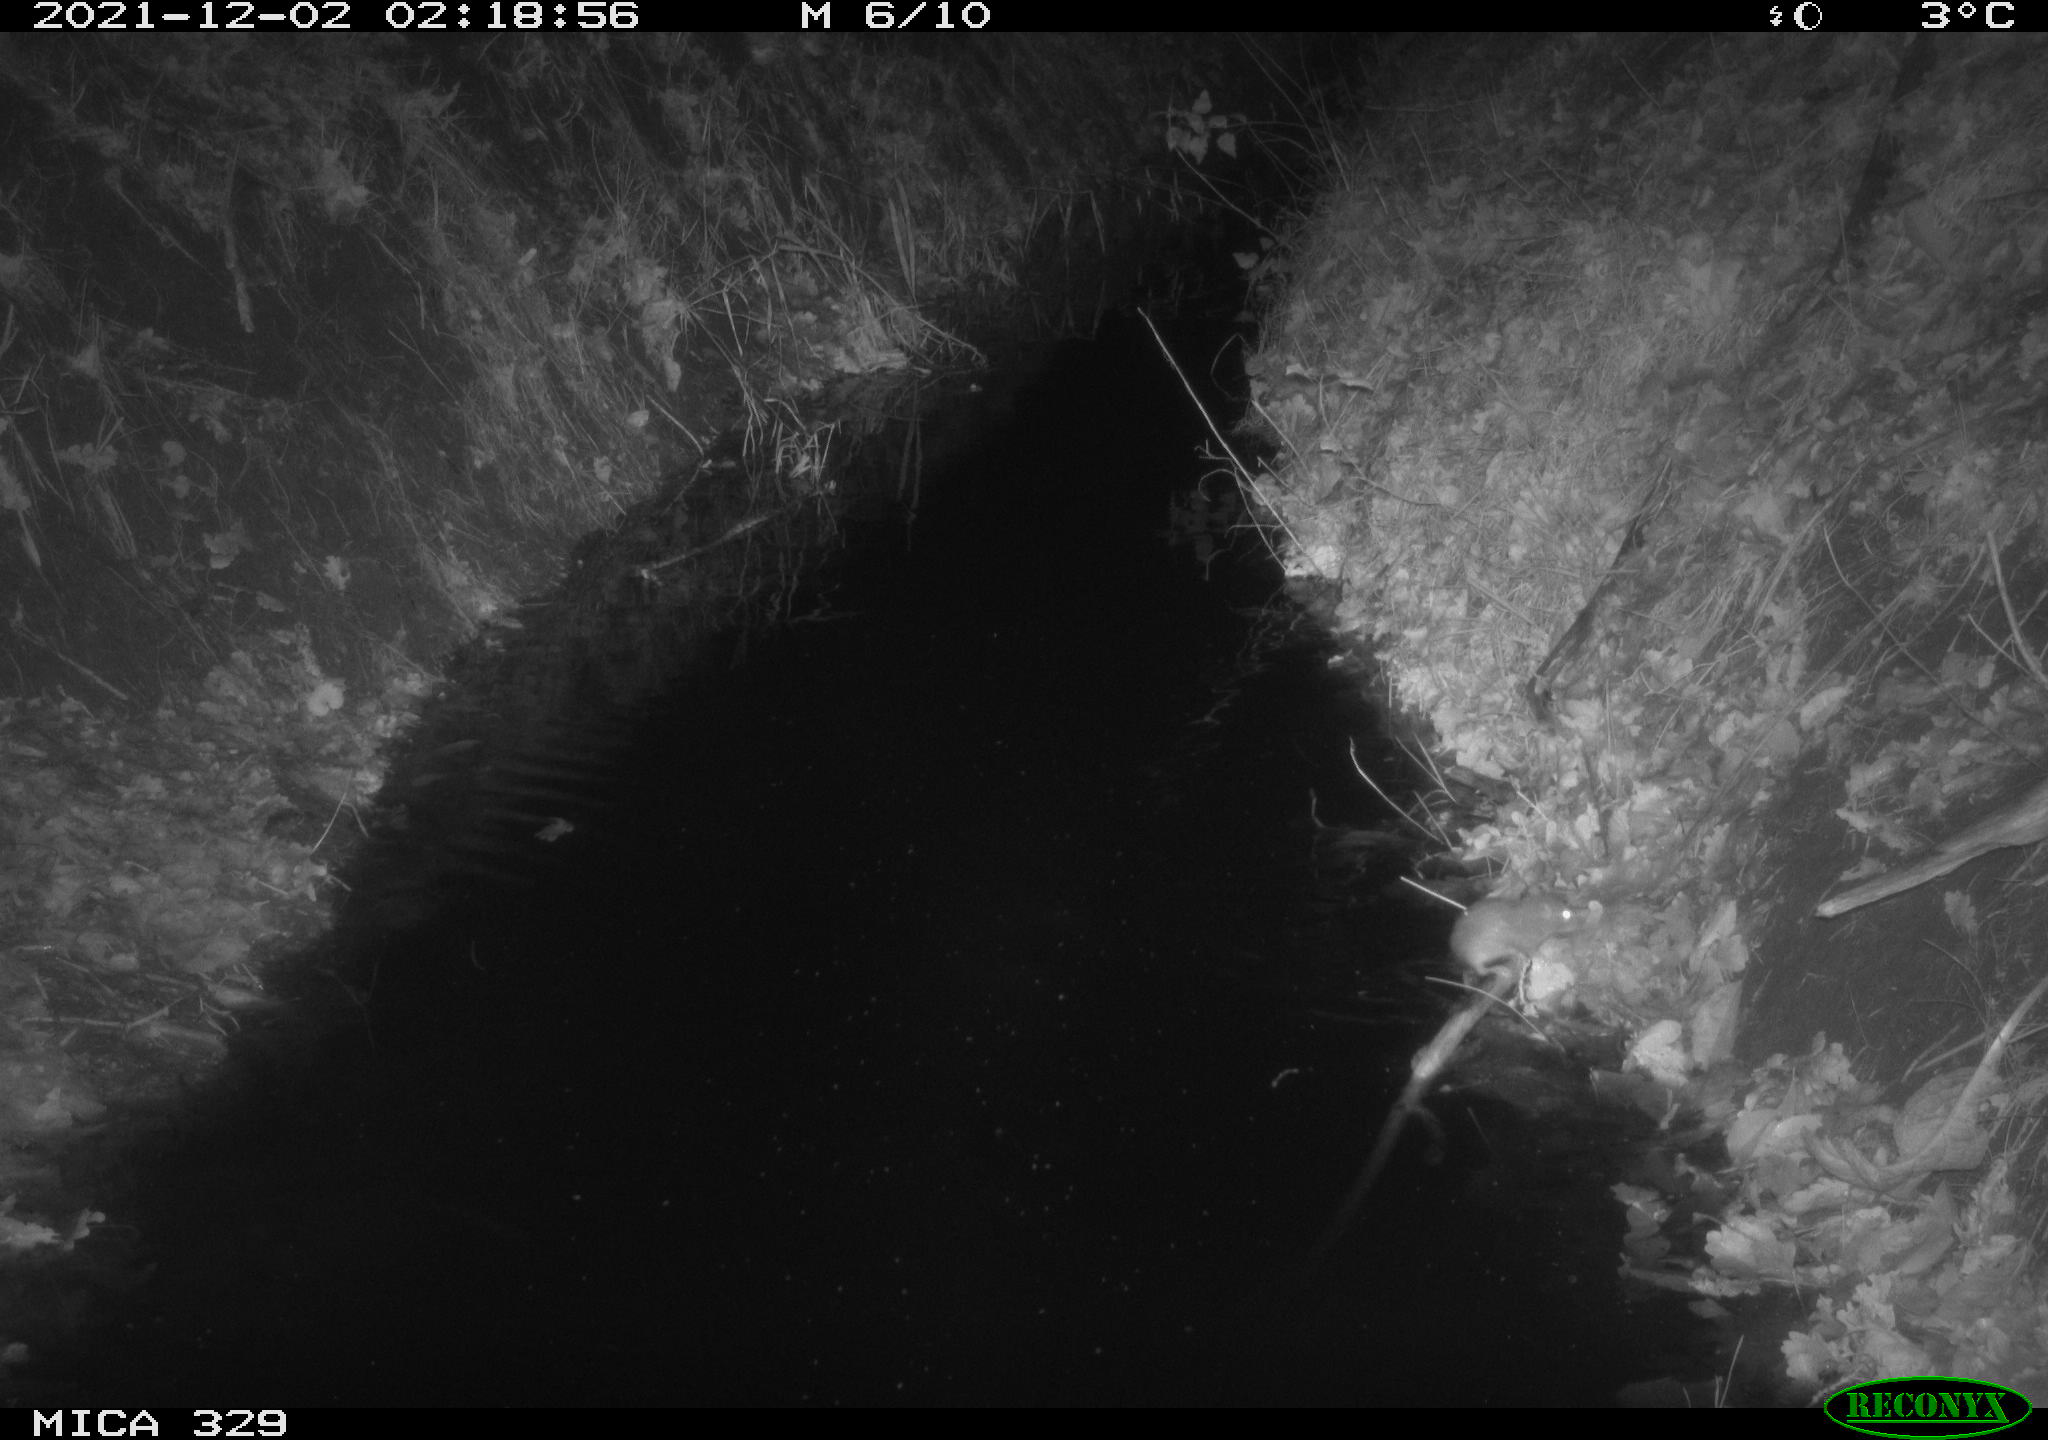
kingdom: Animalia
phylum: Chordata
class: Mammalia
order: Rodentia
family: Muridae
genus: Rattus
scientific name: Rattus norvegicus
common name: Brown rat
